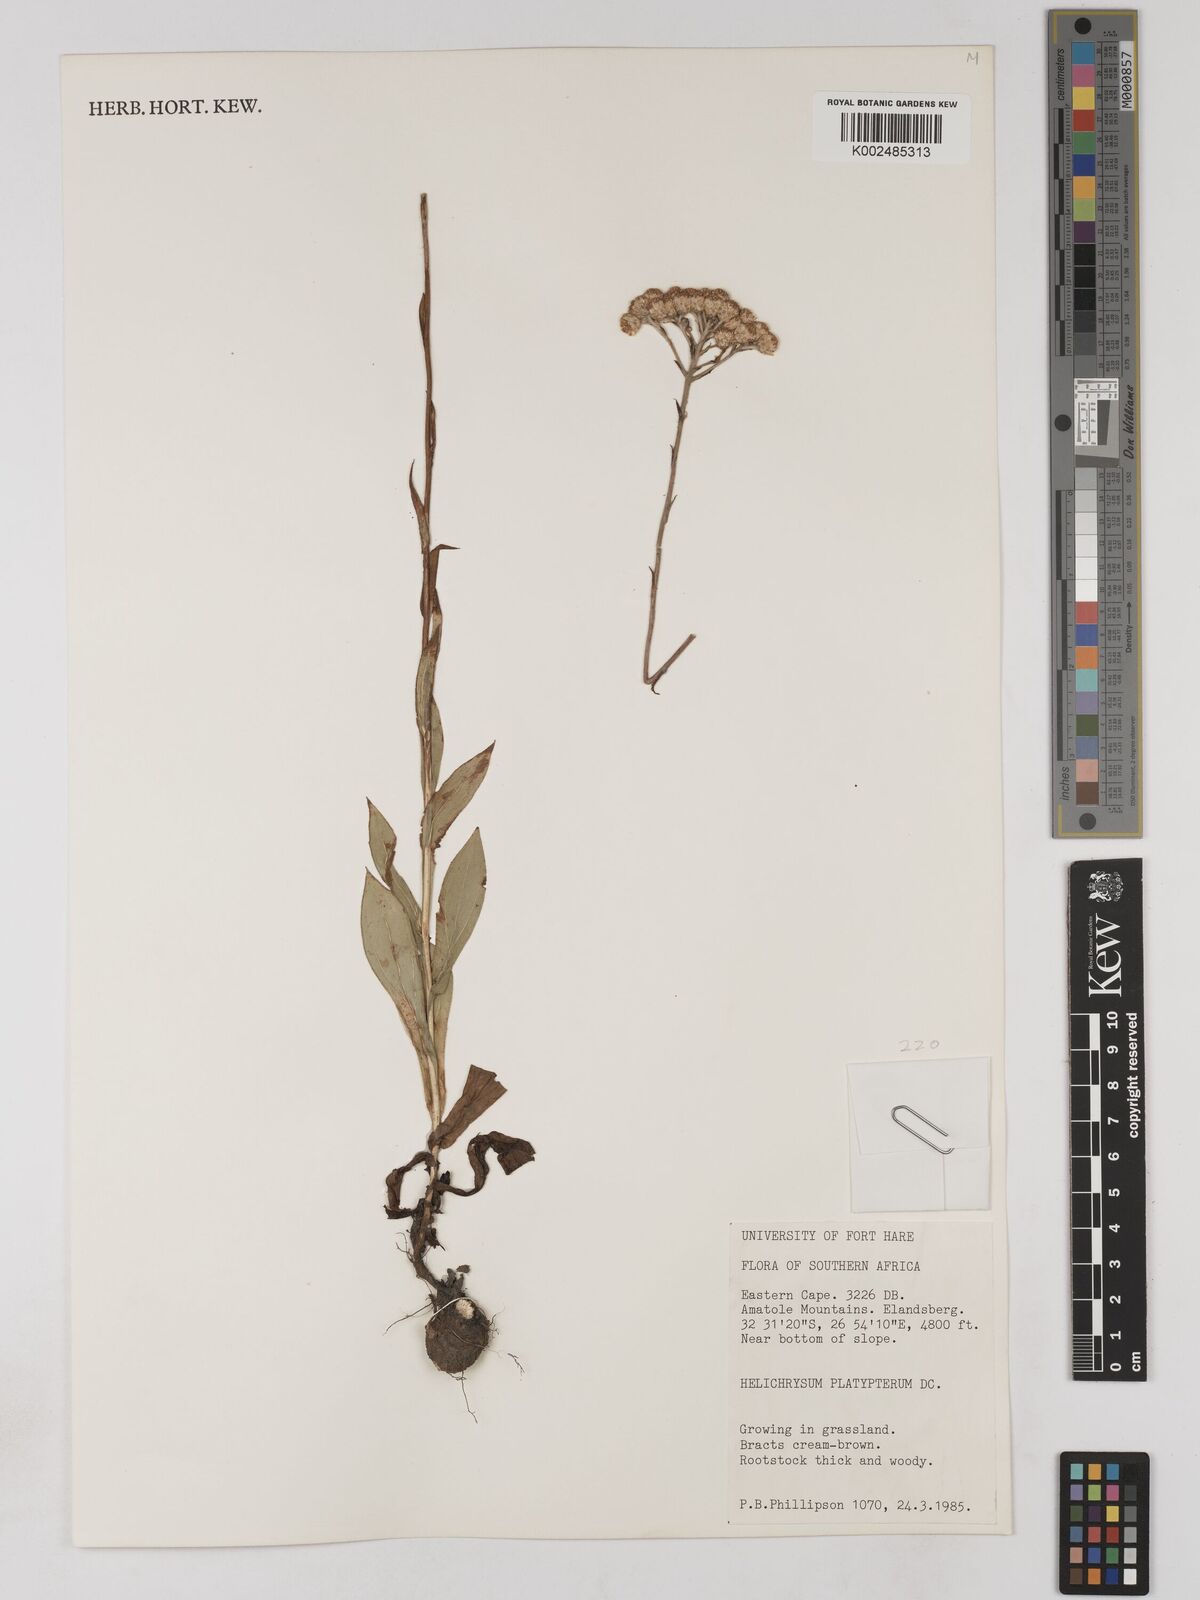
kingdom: Plantae
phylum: Tracheophyta
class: Magnoliopsida
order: Asterales
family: Asteraceae
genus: Helichrysum
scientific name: Helichrysum platypterum
